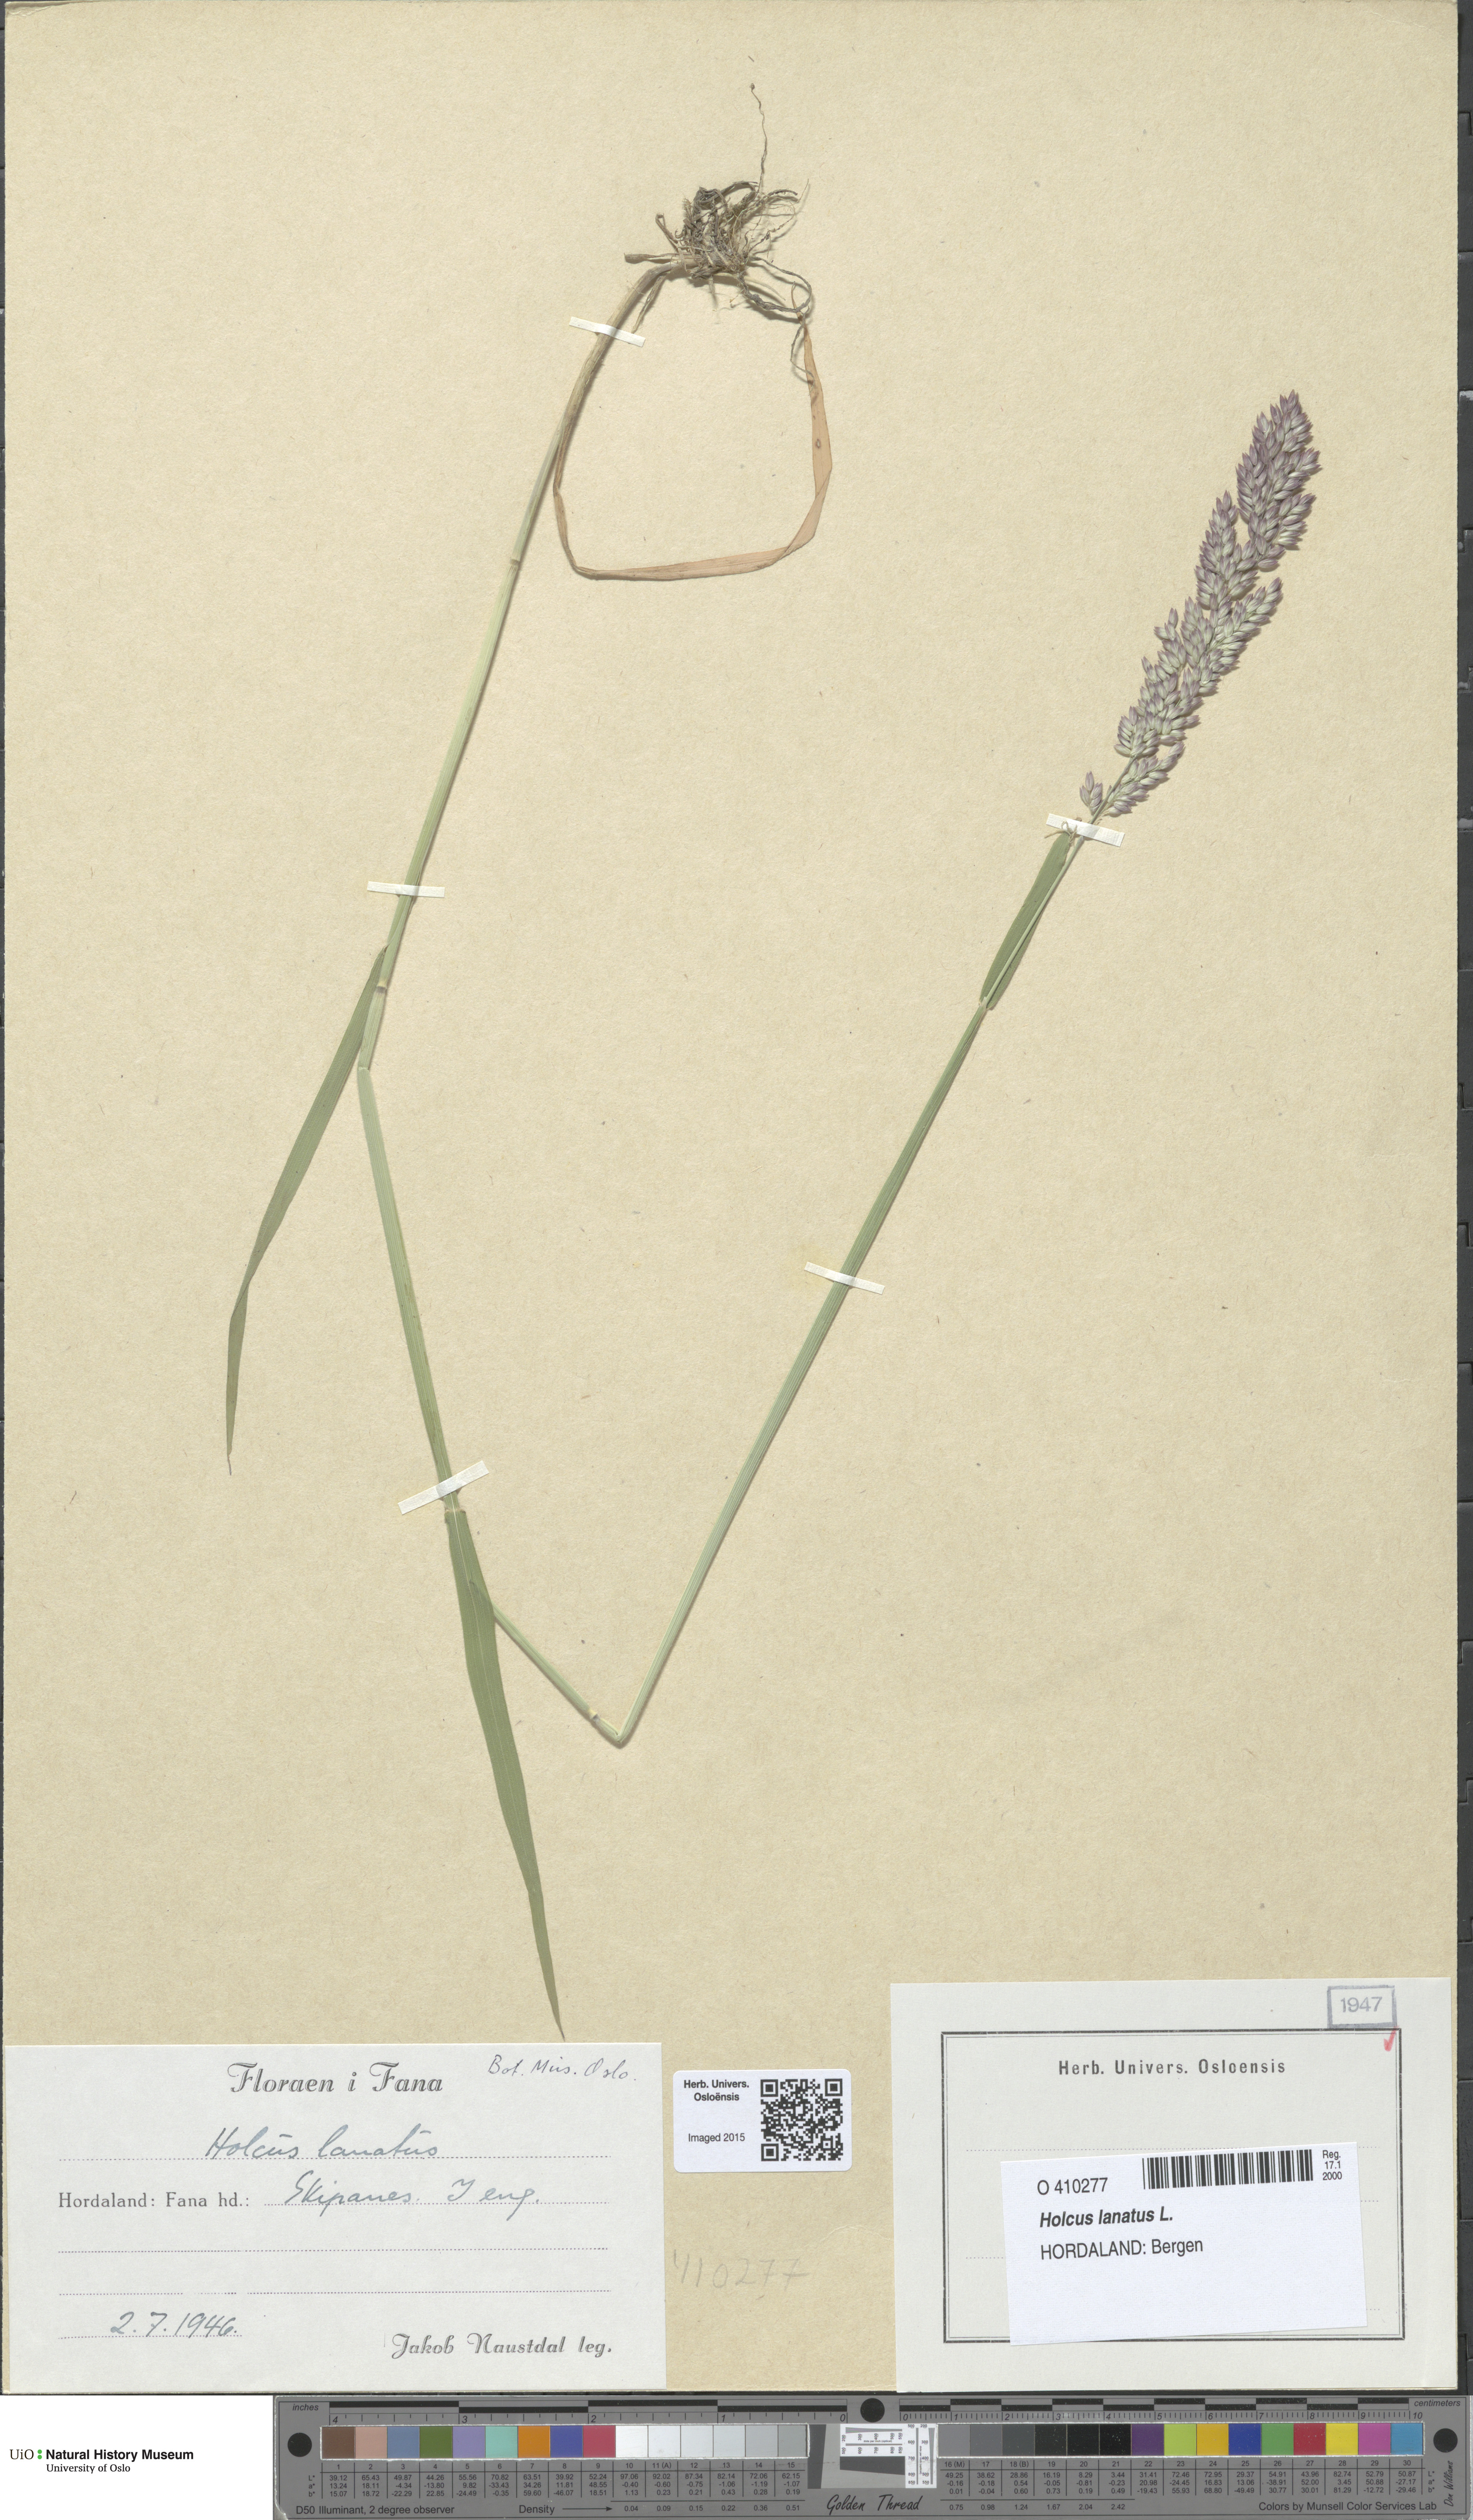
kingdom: Plantae
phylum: Tracheophyta
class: Liliopsida
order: Poales
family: Poaceae
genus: Holcus
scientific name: Holcus lanatus
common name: Yorkshire-fog
